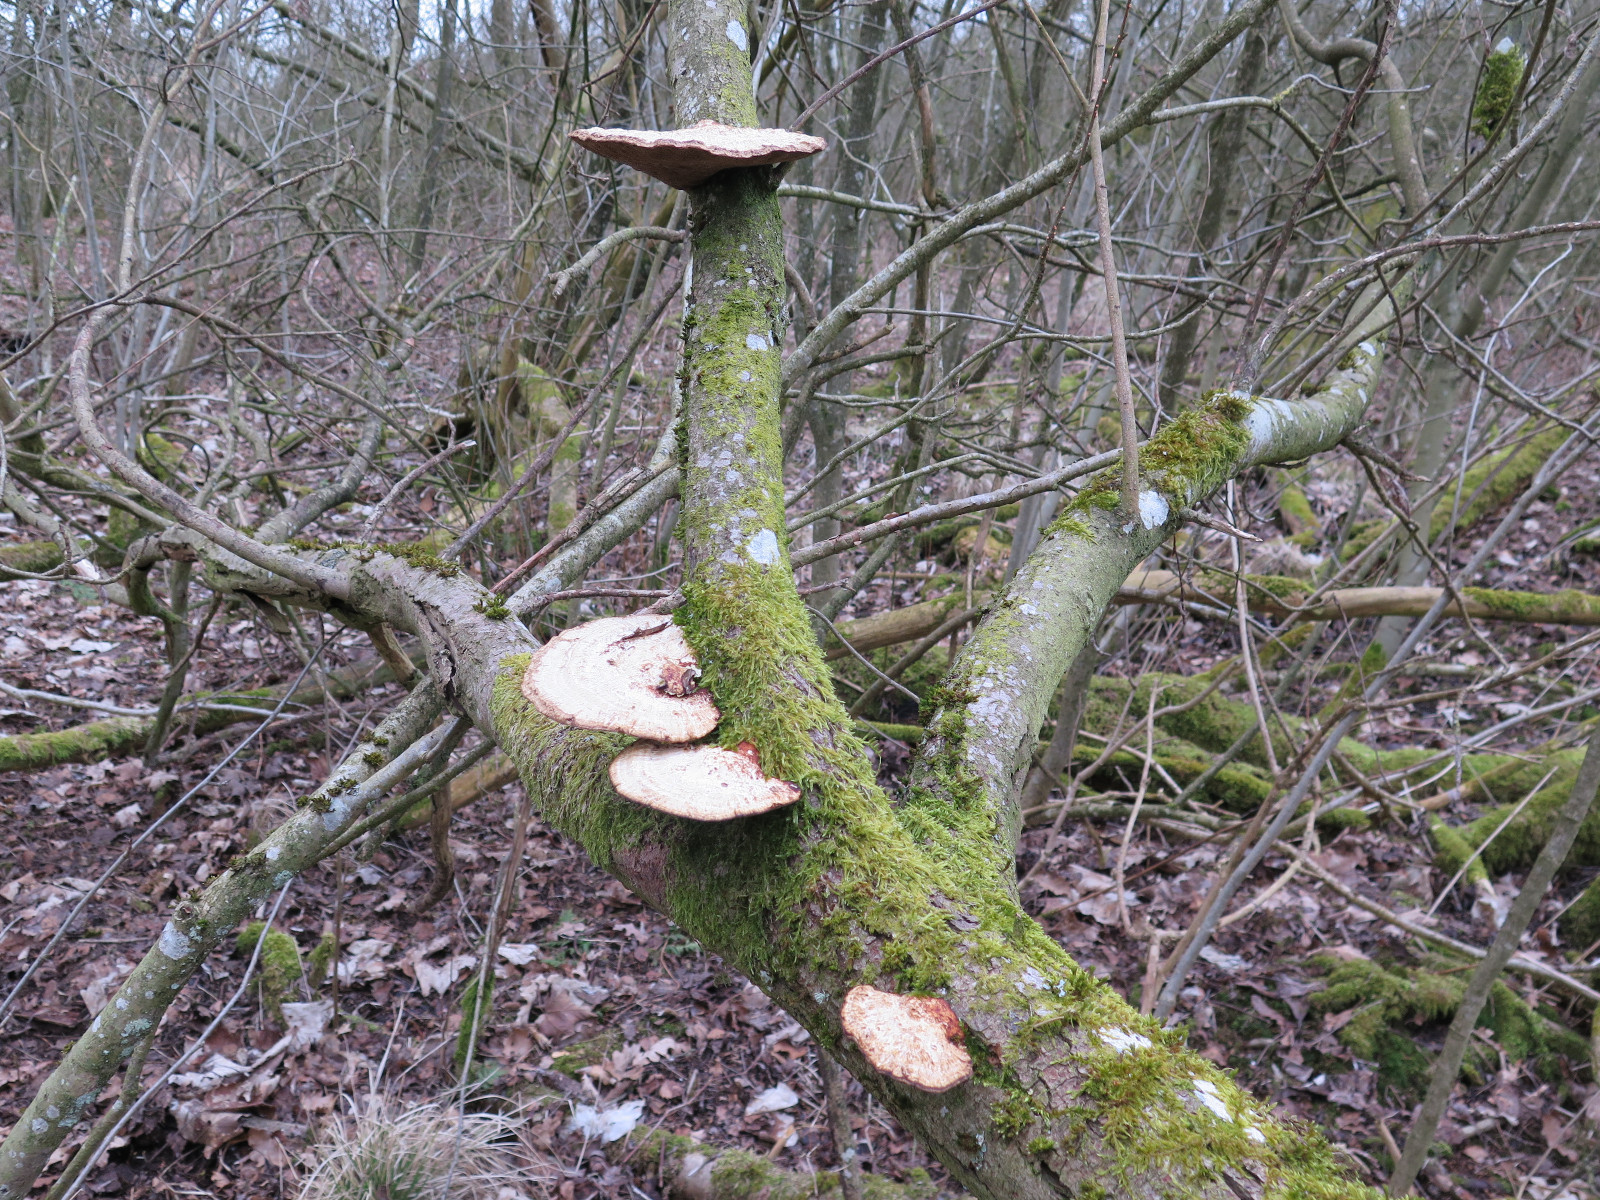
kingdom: Fungi
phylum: Basidiomycota
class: Agaricomycetes
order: Polyporales
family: Polyporaceae
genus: Daedaleopsis
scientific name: Daedaleopsis confragosa
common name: rødmende læderporesvamp
